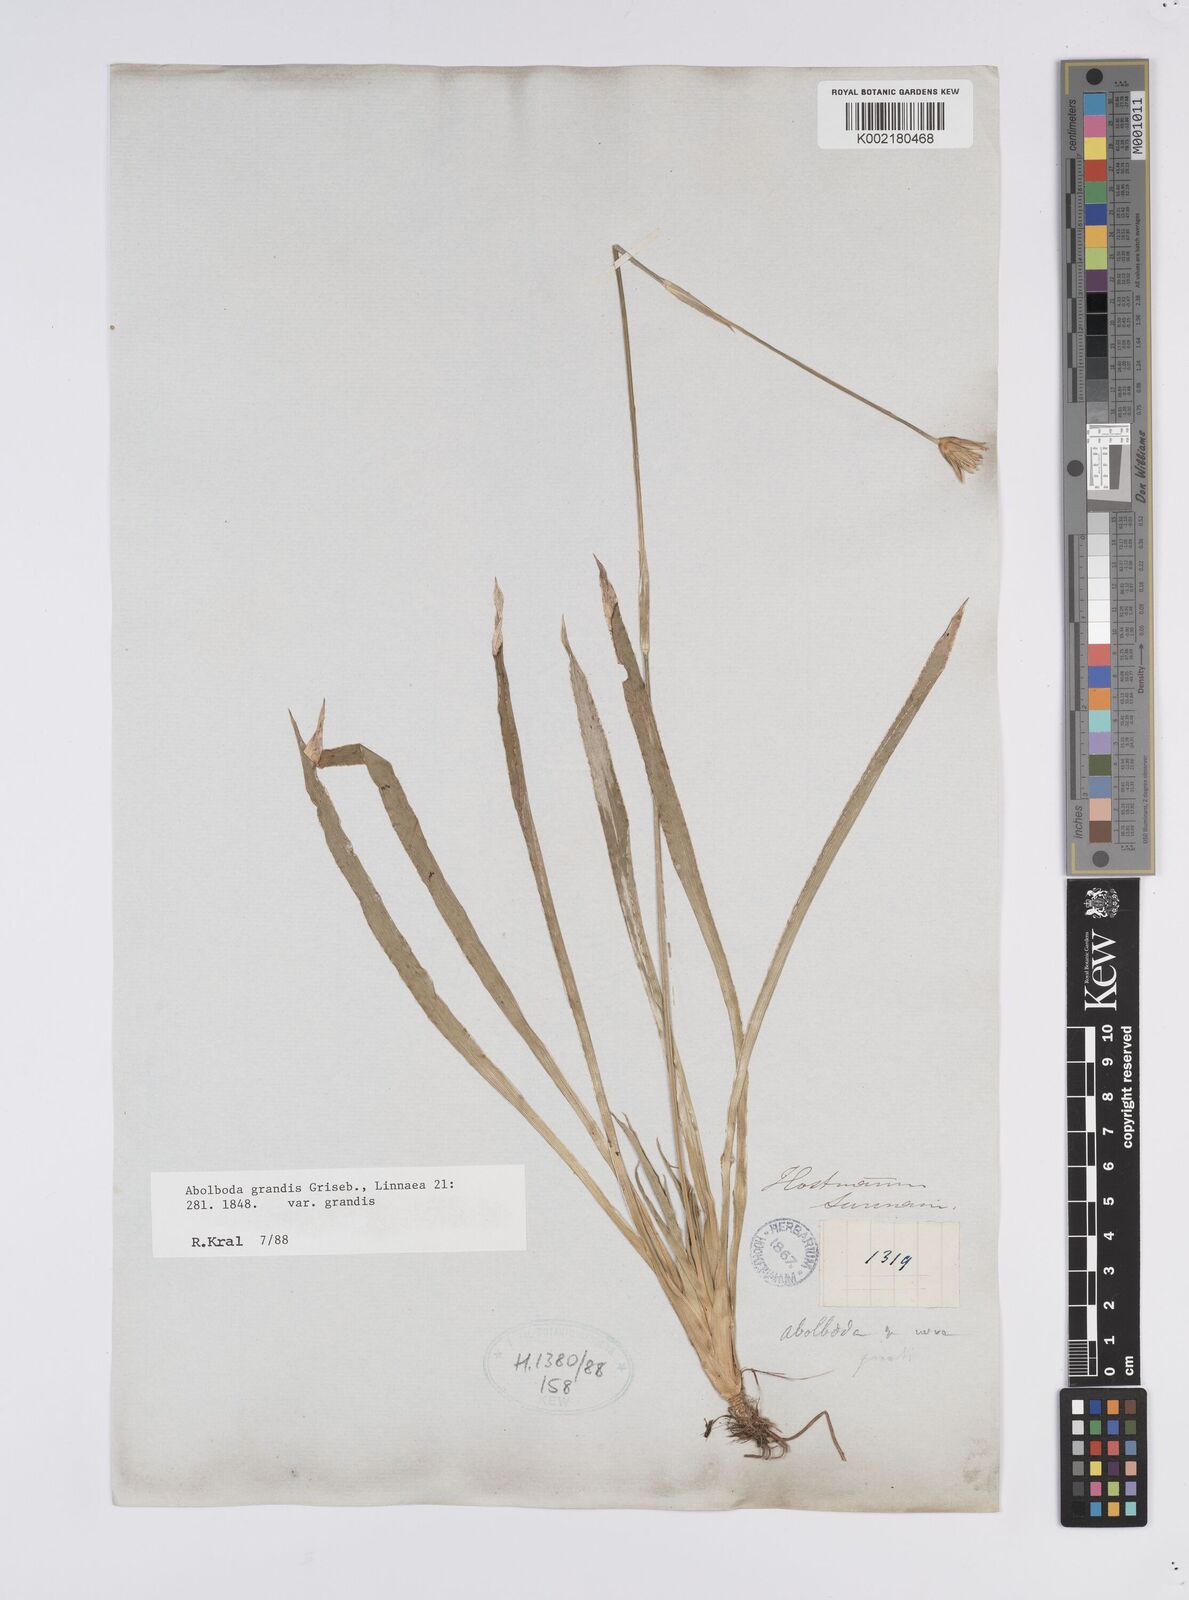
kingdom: Plantae
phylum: Tracheophyta
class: Liliopsida
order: Poales
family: Xyridaceae
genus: Abolboda
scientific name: Abolboda grandis
